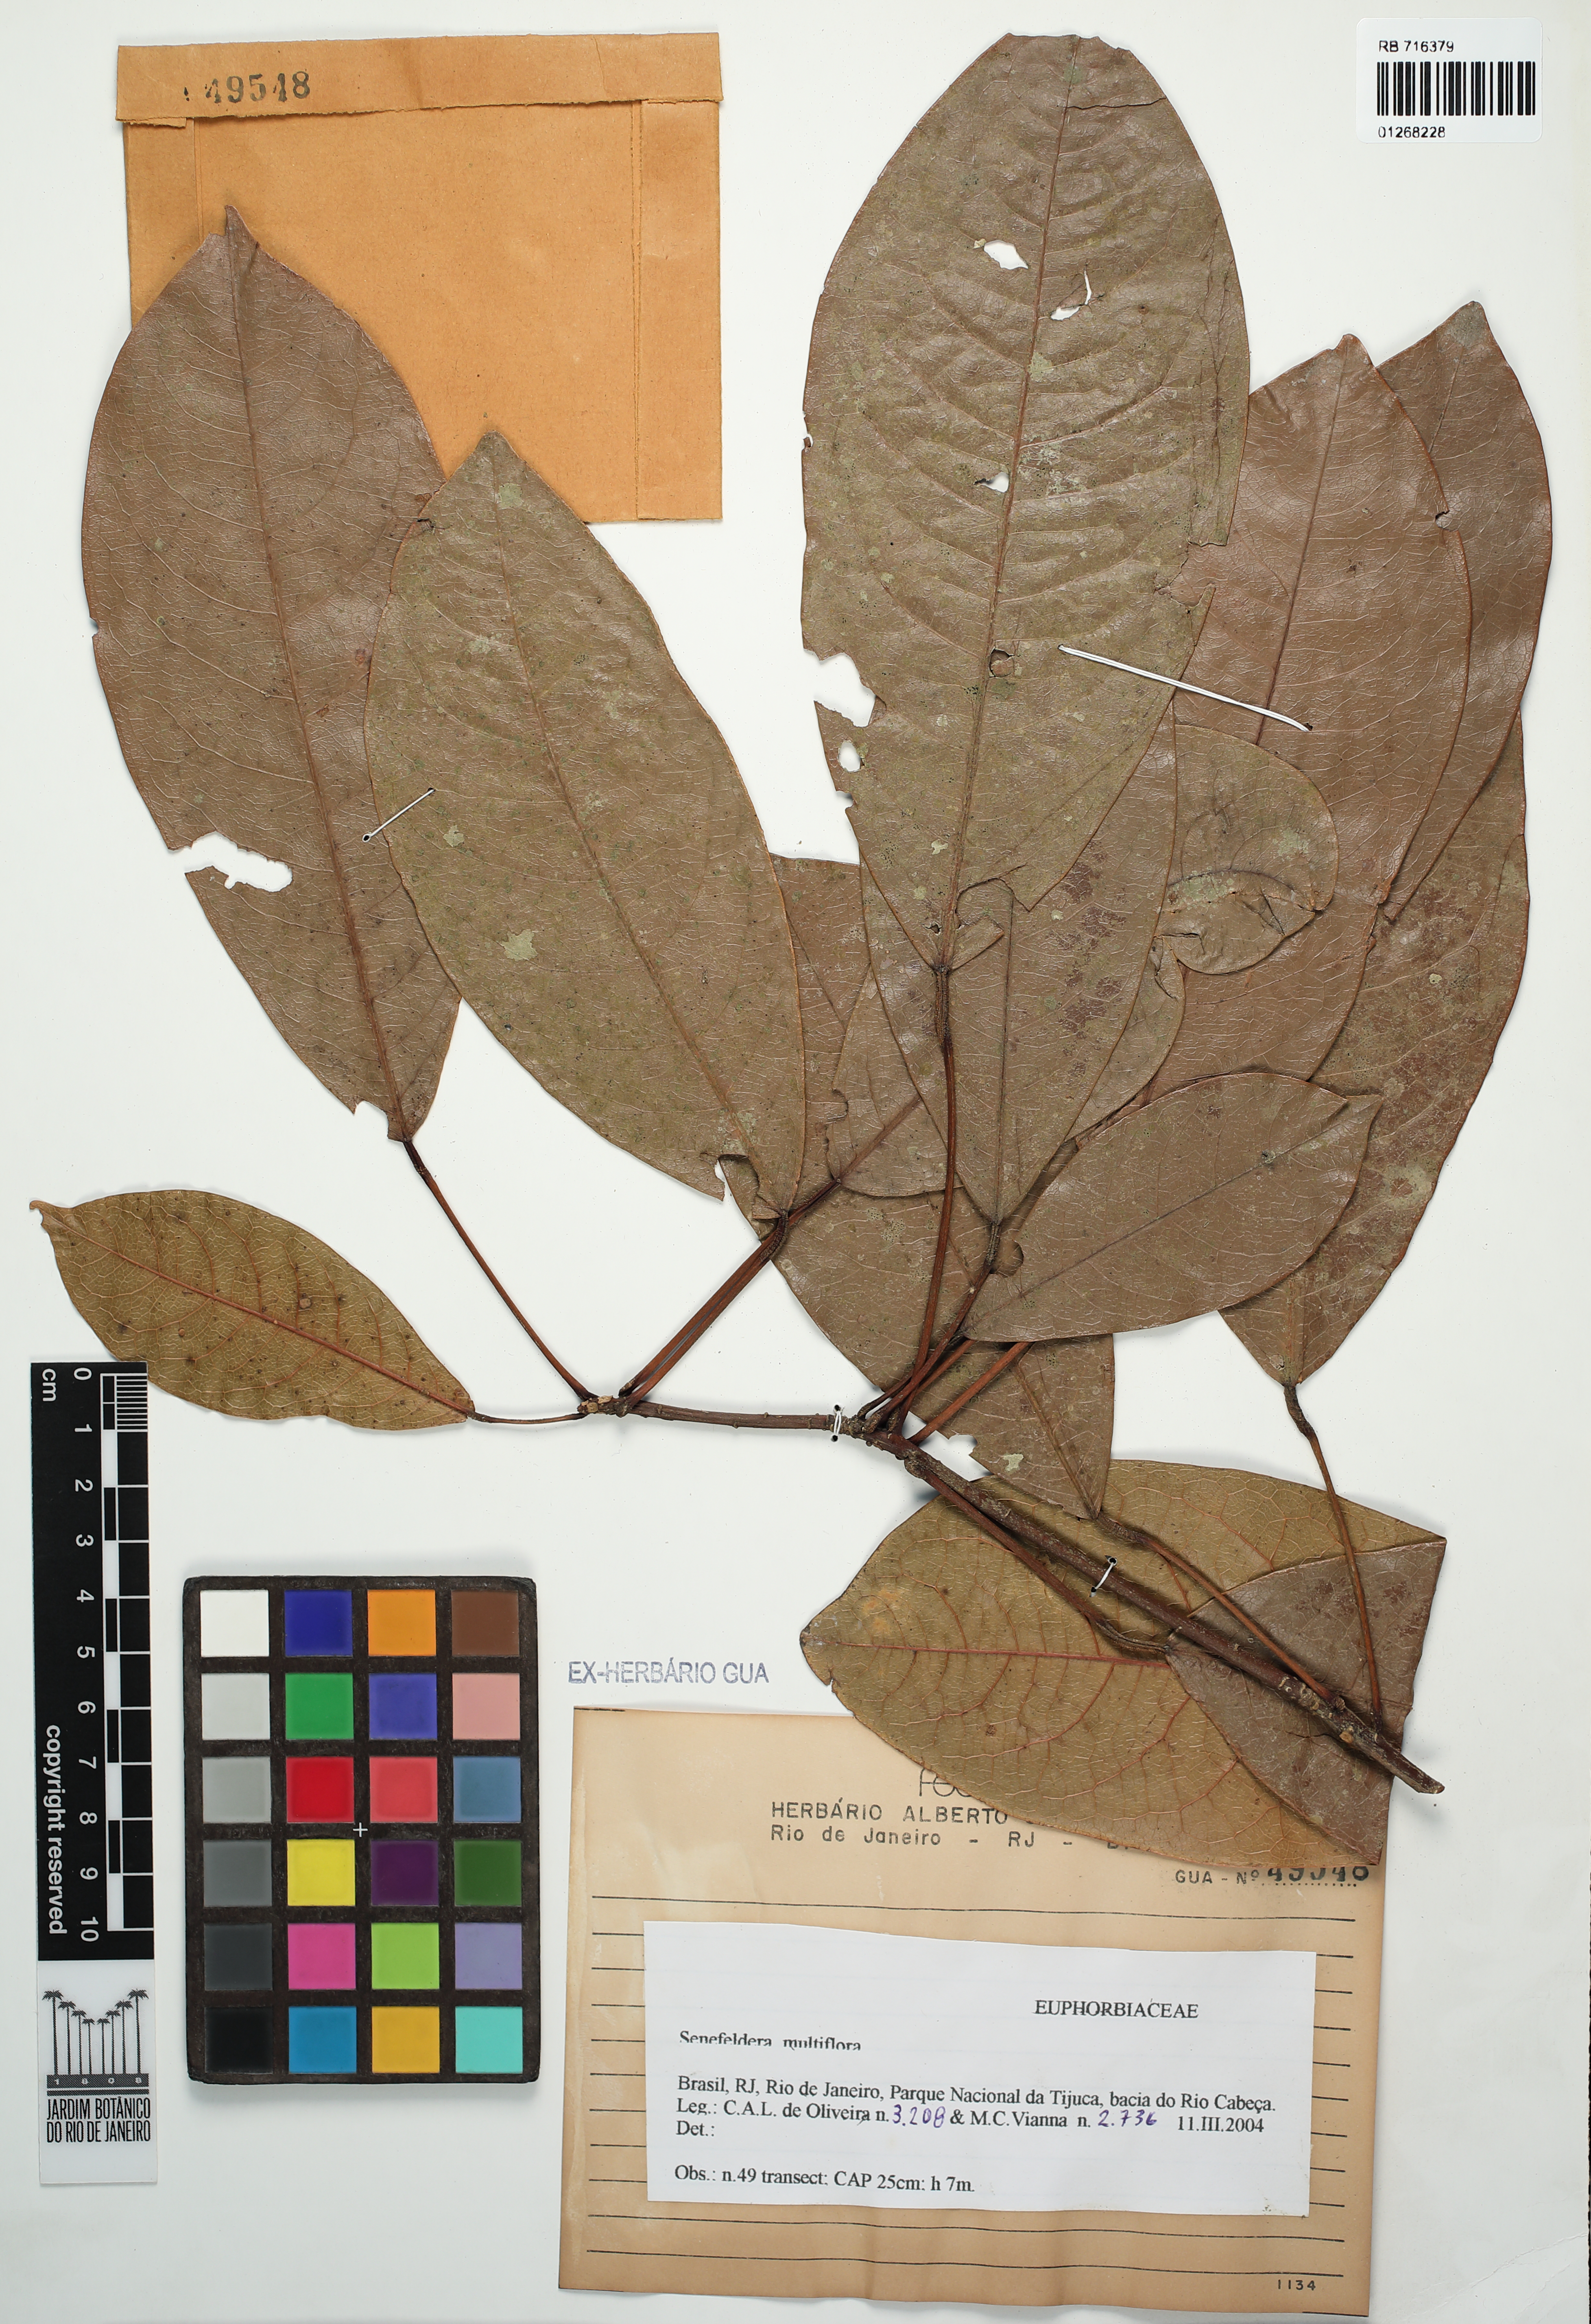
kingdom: Plantae
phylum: Tracheophyta
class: Magnoliopsida
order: Malpighiales
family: Euphorbiaceae
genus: Senefeldera
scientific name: Senefeldera verticillata
